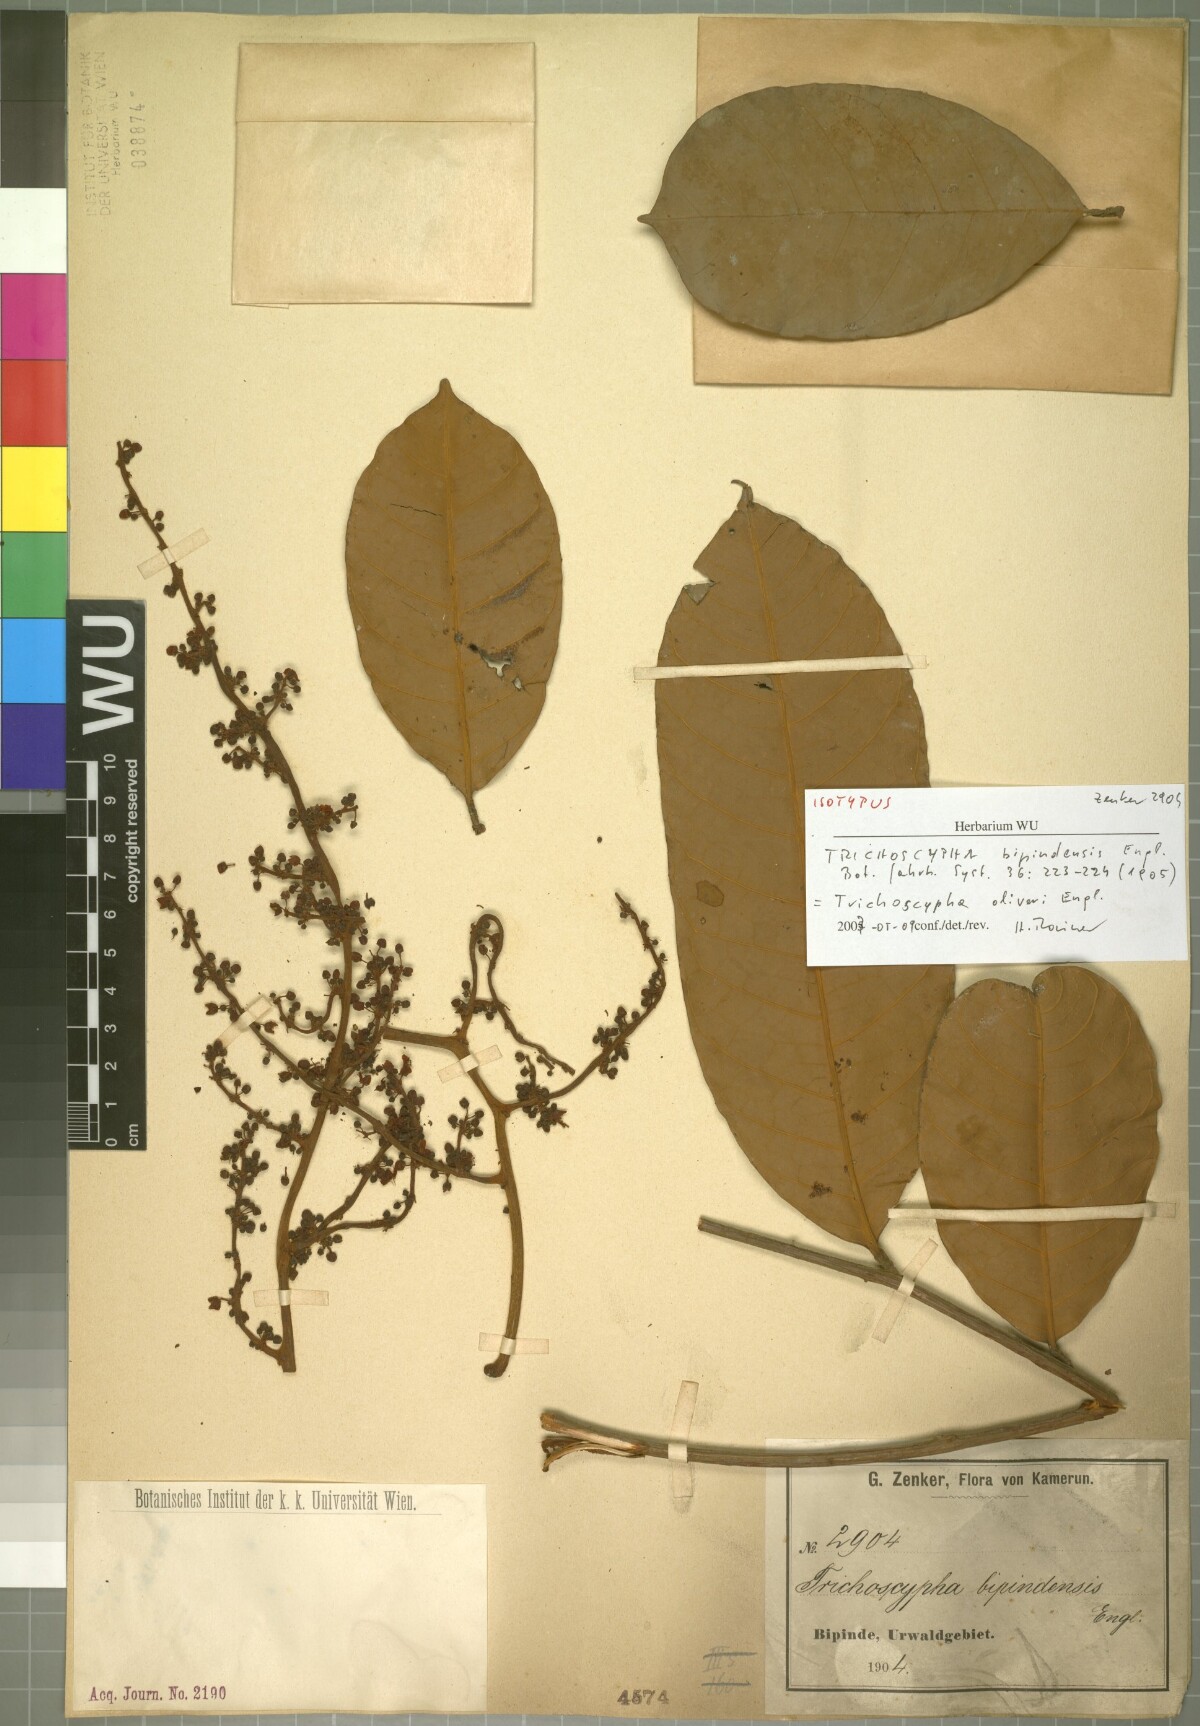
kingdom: Plantae
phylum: Tracheophyta
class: Magnoliopsida
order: Sapindales
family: Anacardiaceae
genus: Trichoscypha
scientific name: Trichoscypha oliveri
